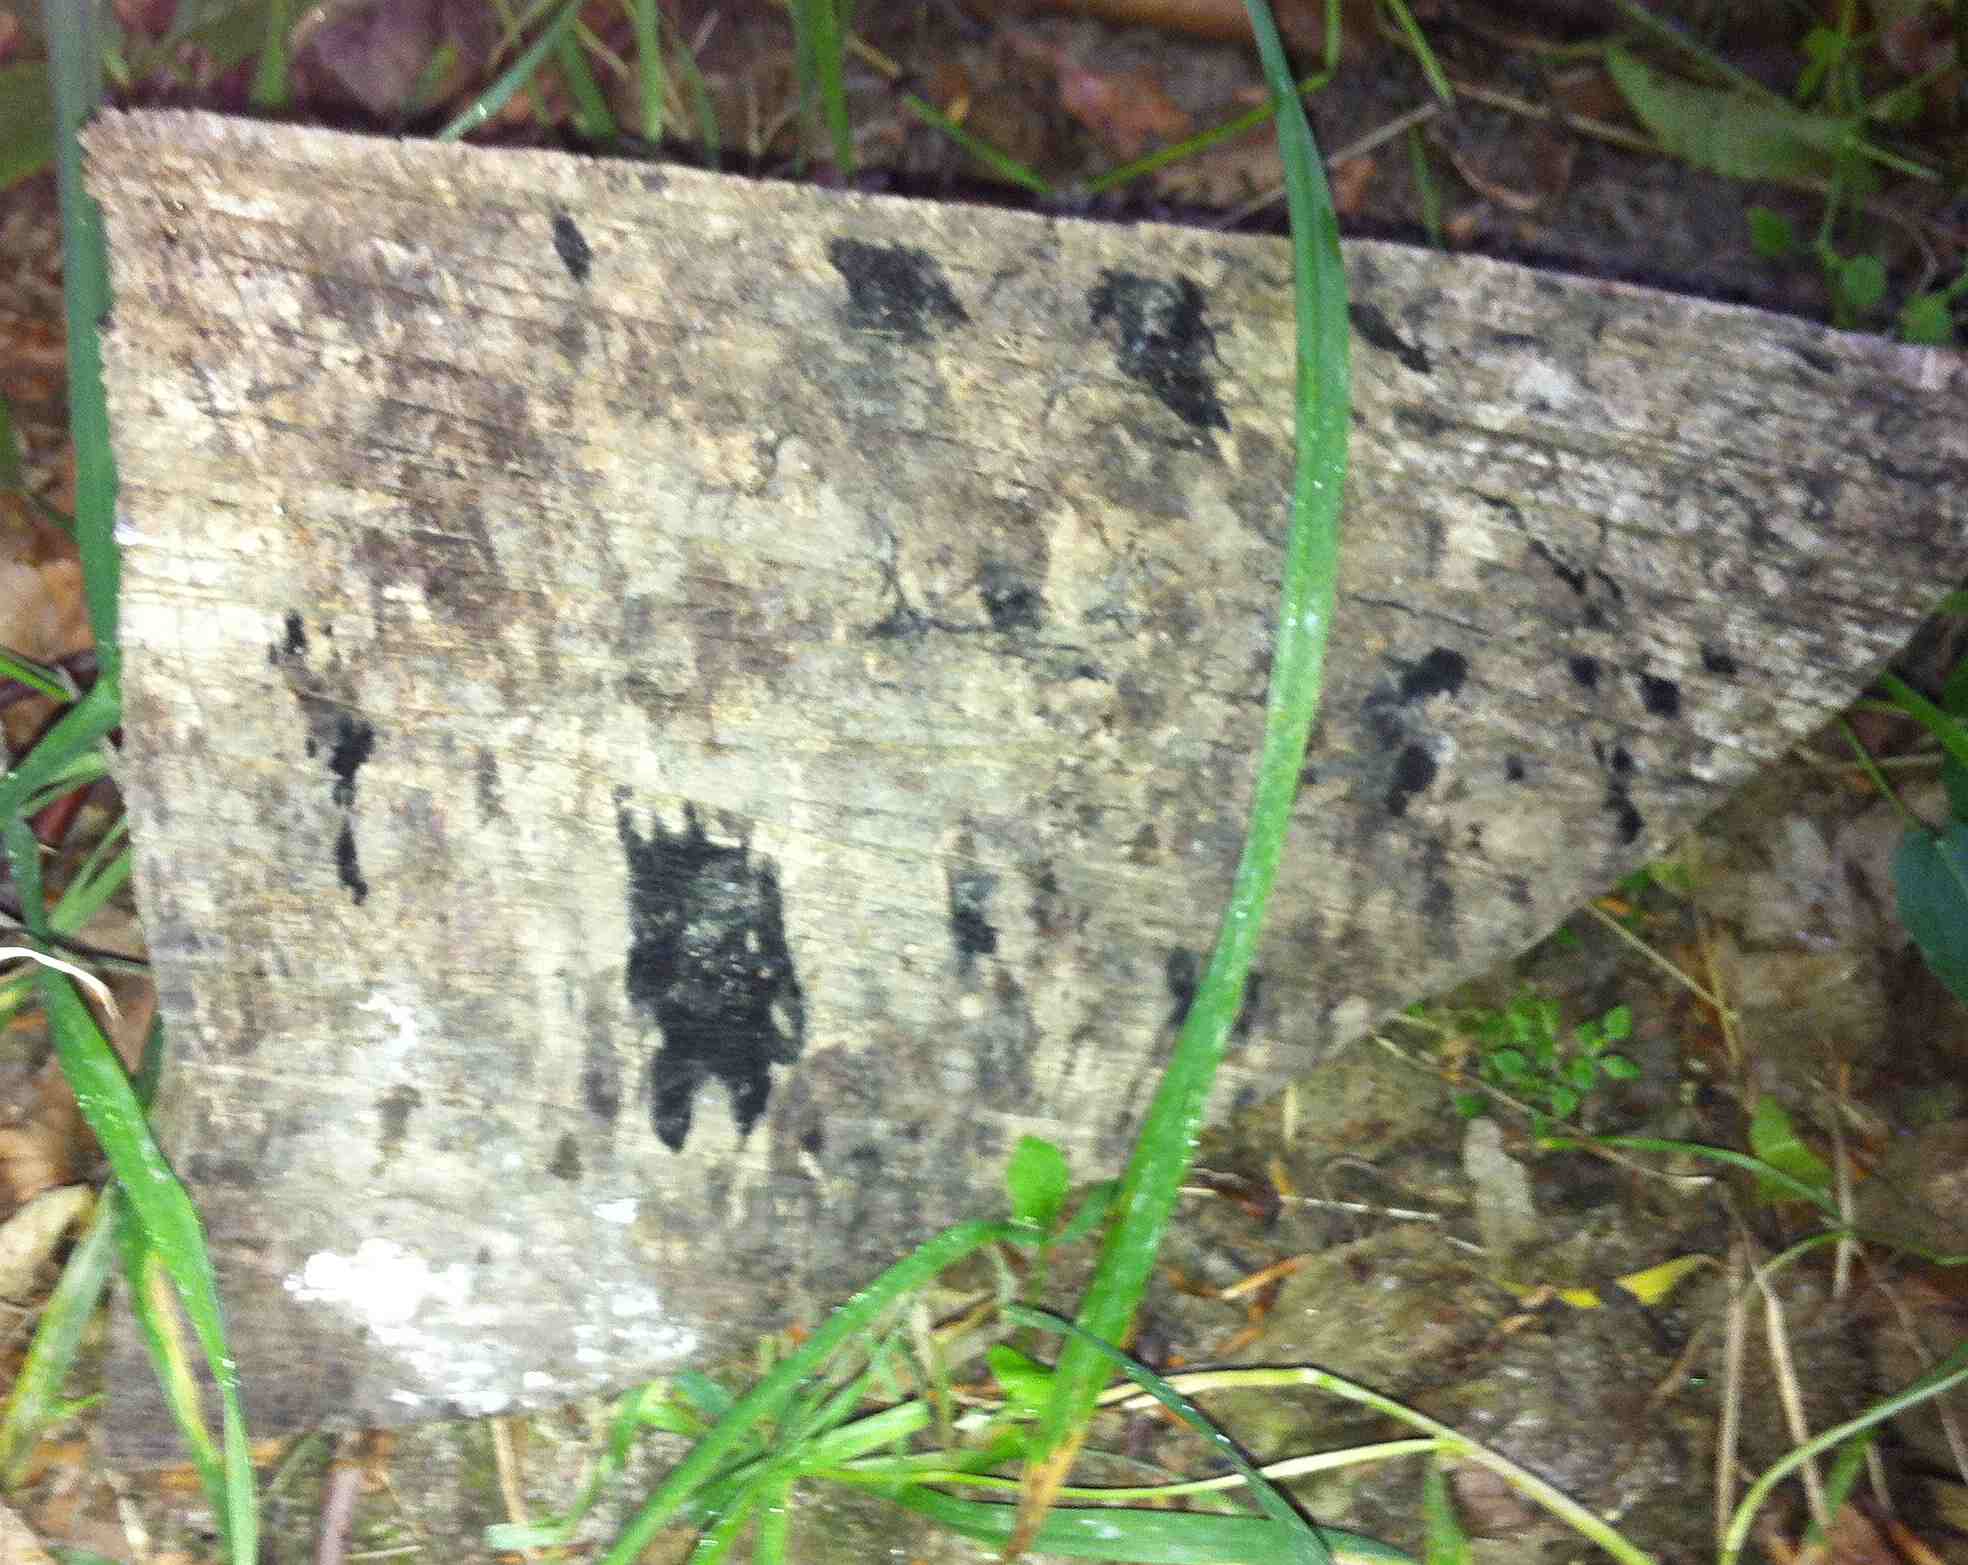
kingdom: Fungi
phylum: Ascomycota
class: Leotiomycetes
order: Helotiales
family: Helotiaceae
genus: Bispora
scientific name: Bispora pallescens
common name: måtte-snitskive
